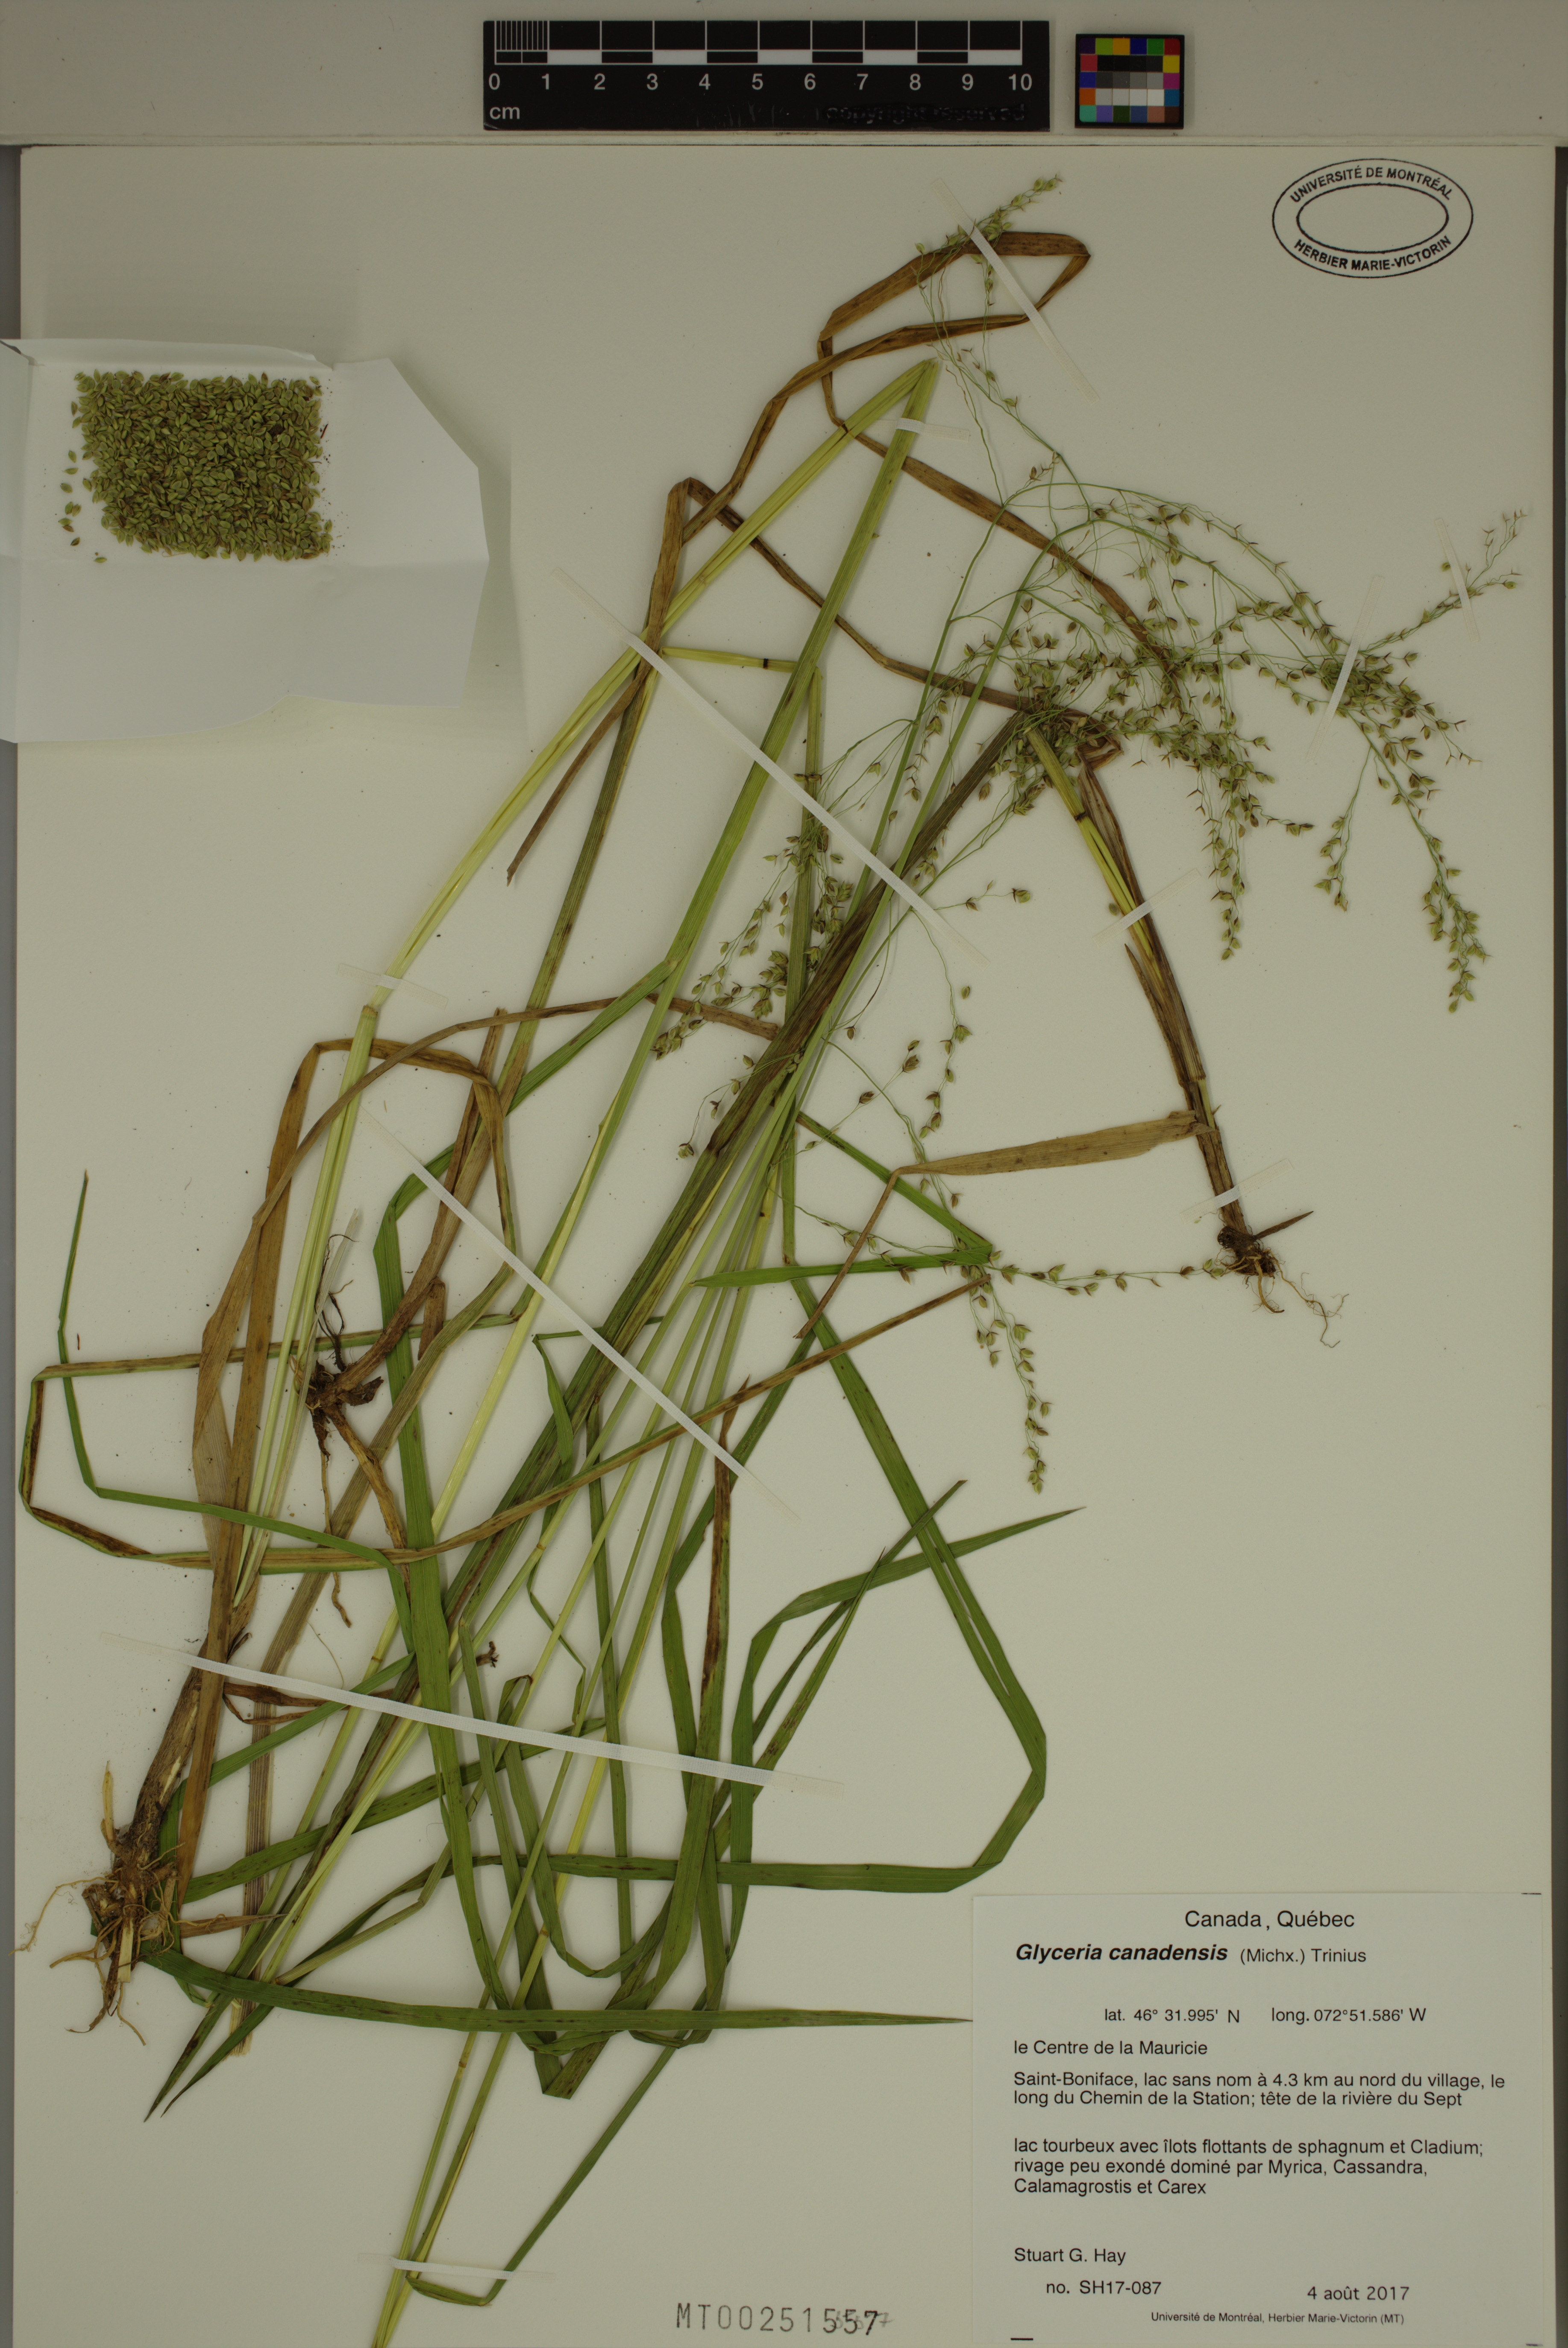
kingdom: Plantae
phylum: Tracheophyta
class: Liliopsida
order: Poales
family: Poaceae
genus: Glyceria
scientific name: Glyceria canadensis
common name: Canada mannagrass
